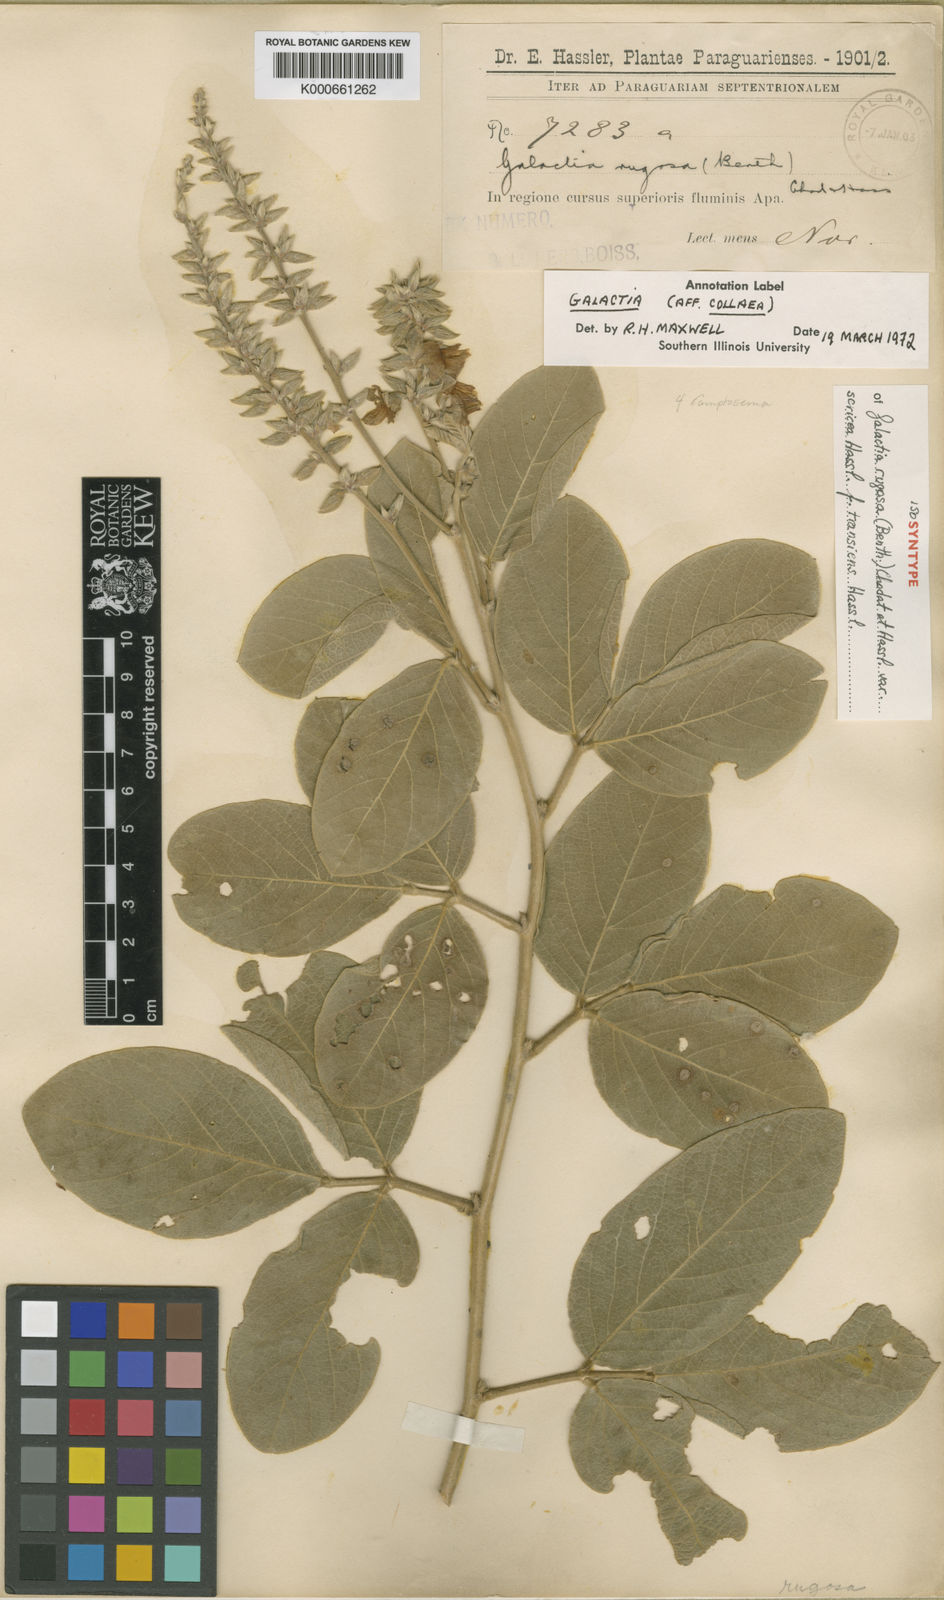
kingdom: Plantae
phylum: Tracheophyta
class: Magnoliopsida
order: Fabales
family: Fabaceae
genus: Cerradicola
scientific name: Cerradicola elliptica
